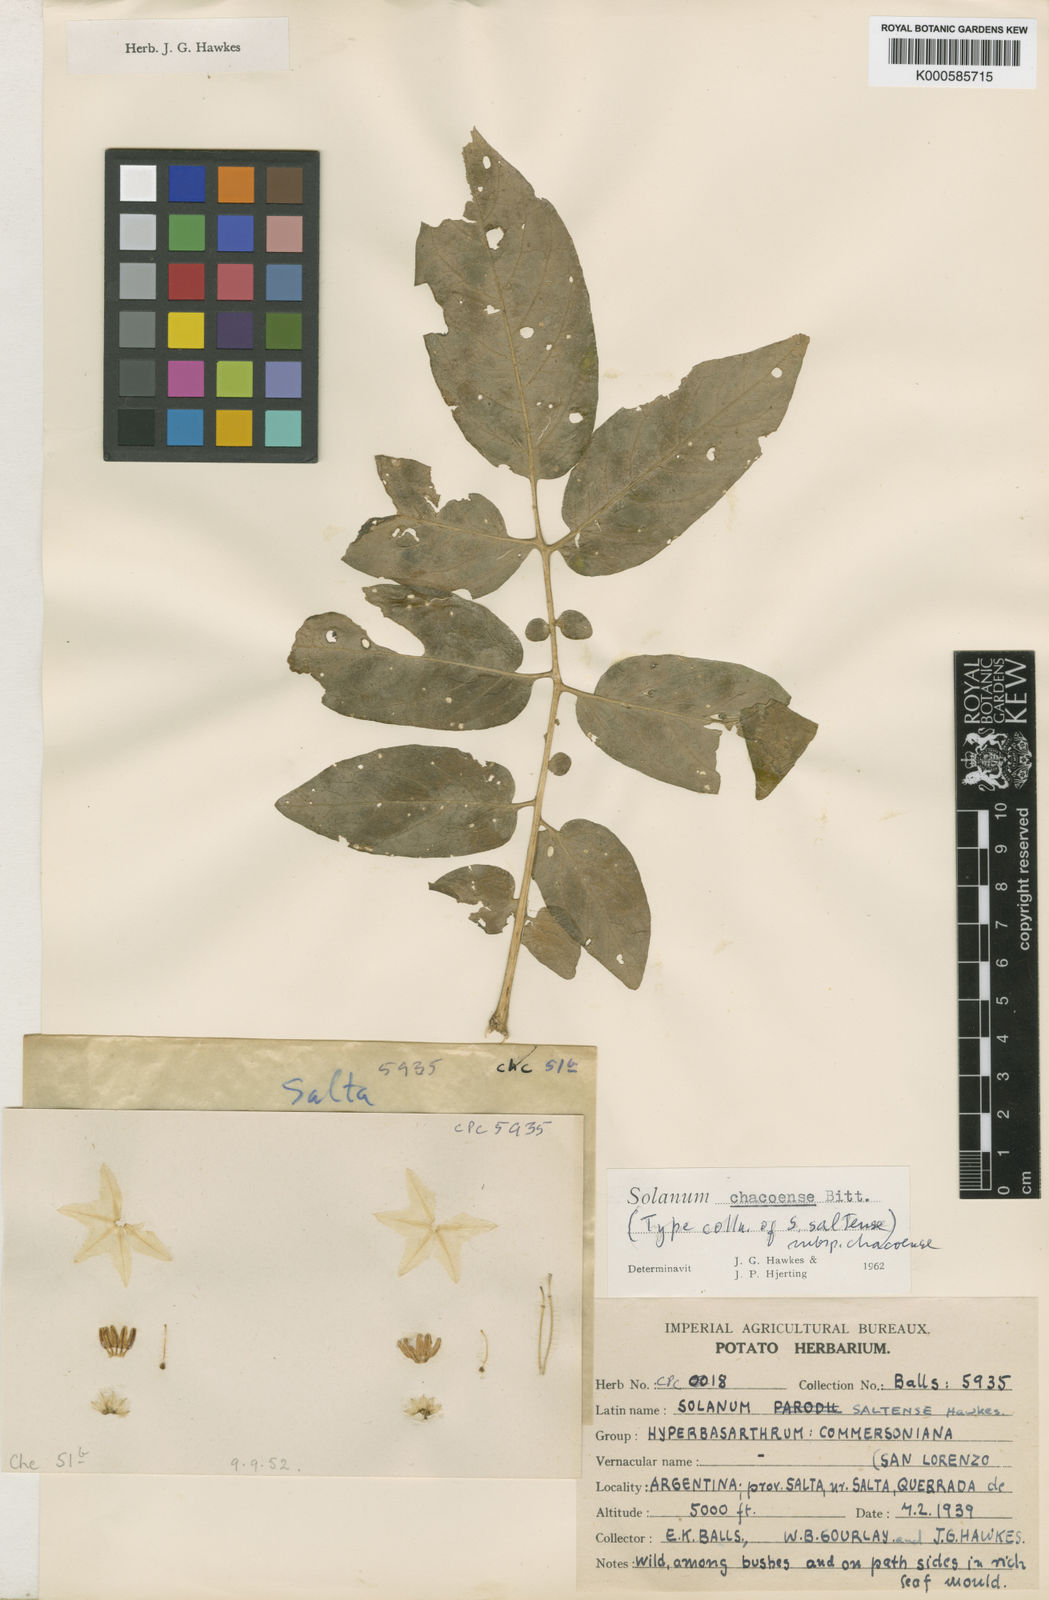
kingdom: Plantae
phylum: Tracheophyta
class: Magnoliopsida
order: Solanales
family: Solanaceae
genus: Solanum
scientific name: Solanum chacoense
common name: Chaco potato
